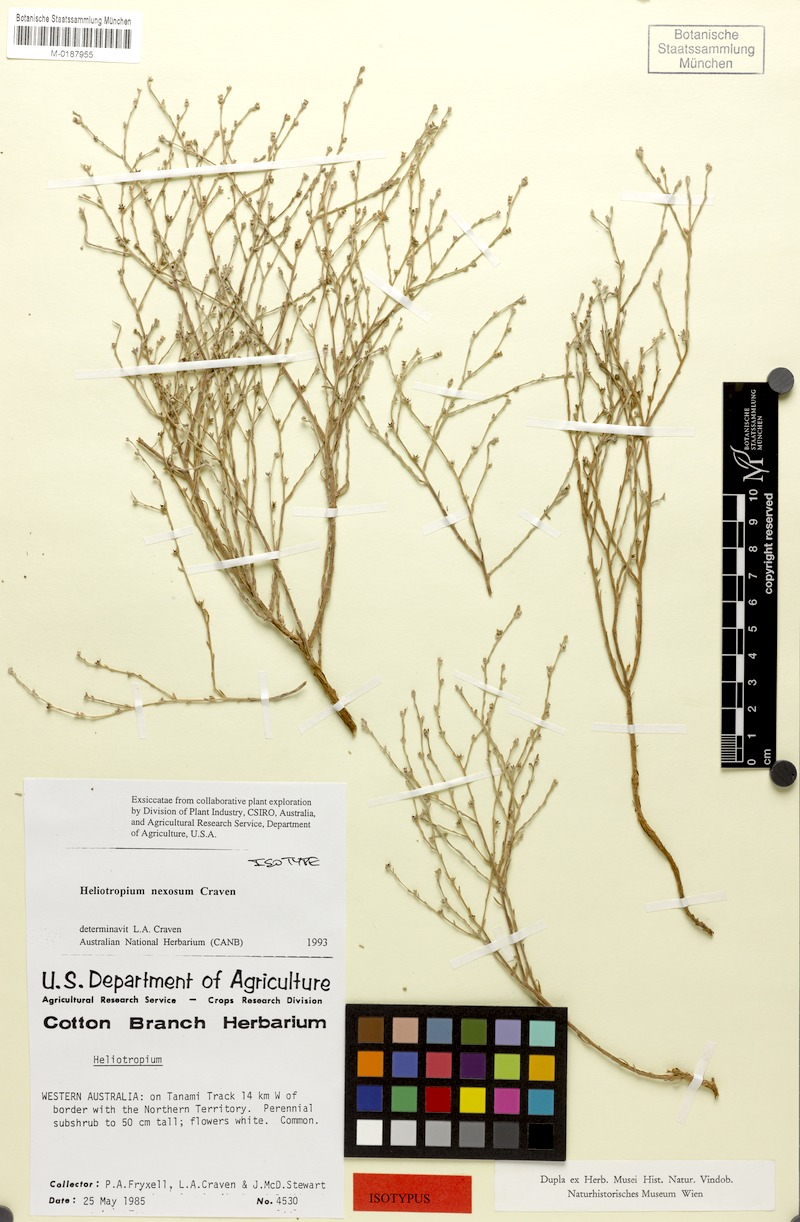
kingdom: Plantae
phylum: Tracheophyta
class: Magnoliopsida
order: Boraginales
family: Heliotropiaceae
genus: Euploca
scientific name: Euploca nexosa
